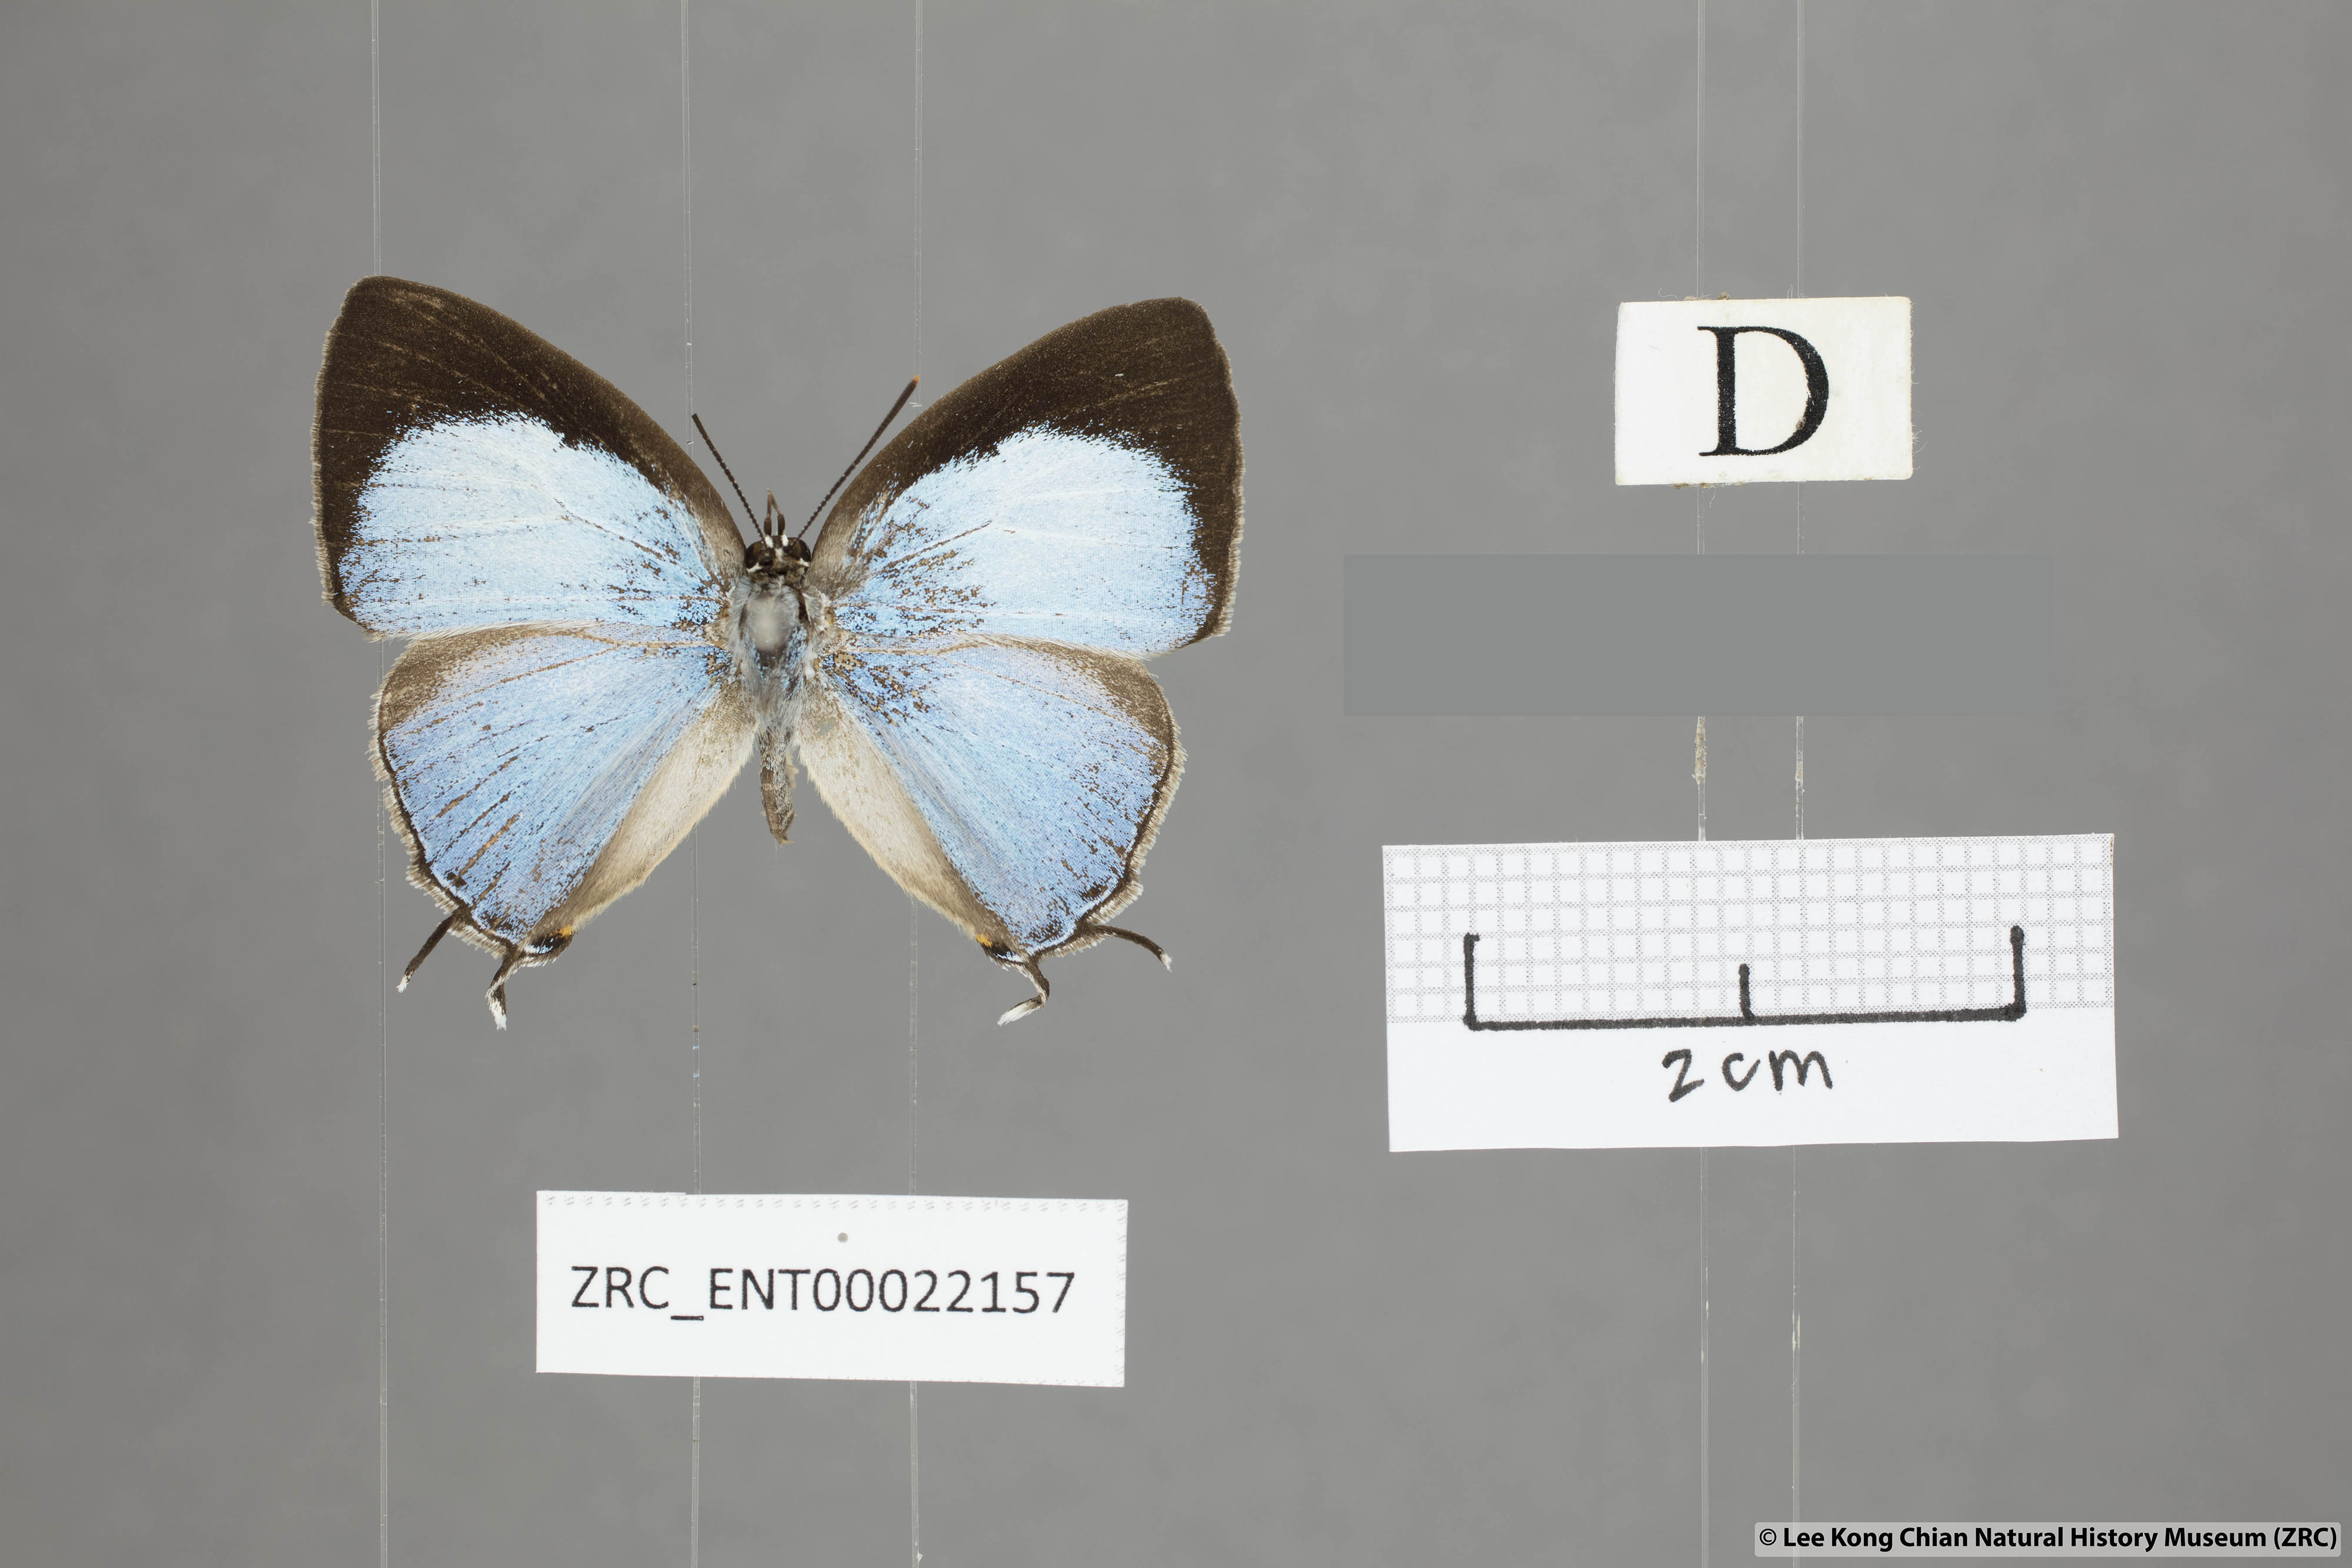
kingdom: Animalia
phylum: Arthropoda
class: Insecta
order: Lepidoptera
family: Lycaenidae
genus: Tajuria
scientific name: Tajuria jalajala
